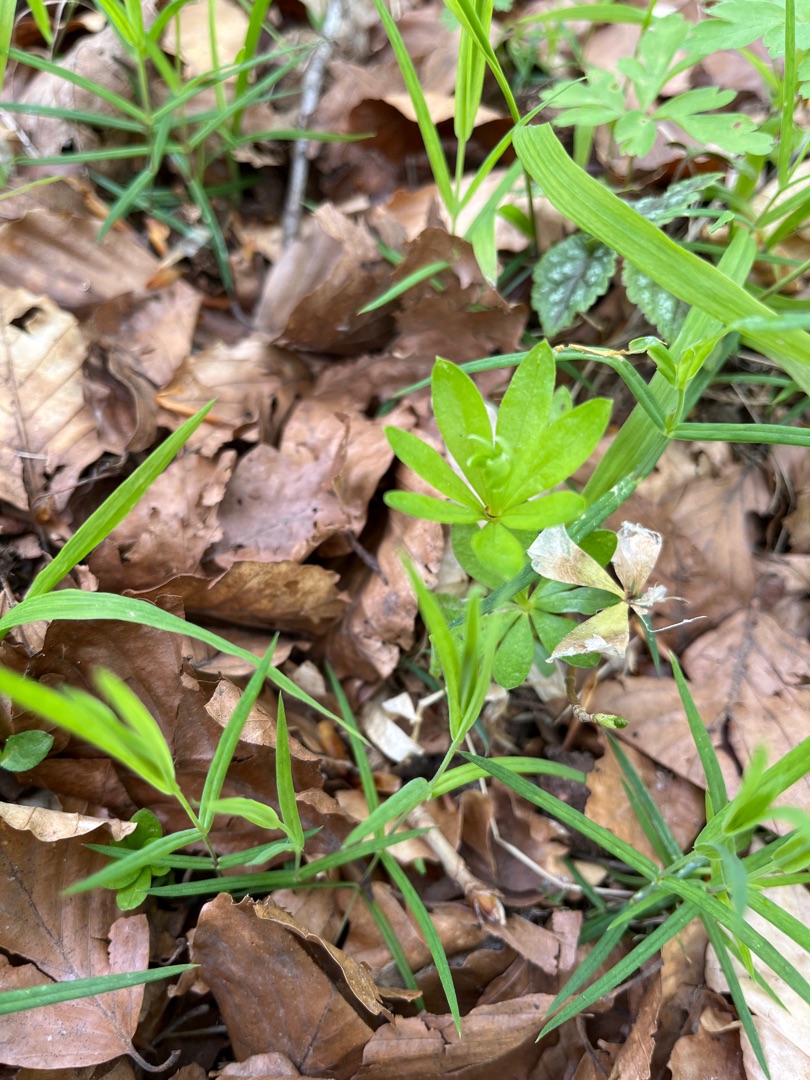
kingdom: Plantae
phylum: Tracheophyta
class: Magnoliopsida
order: Gentianales
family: Rubiaceae
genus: Galium
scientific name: Galium odoratum
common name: Skovmærke
